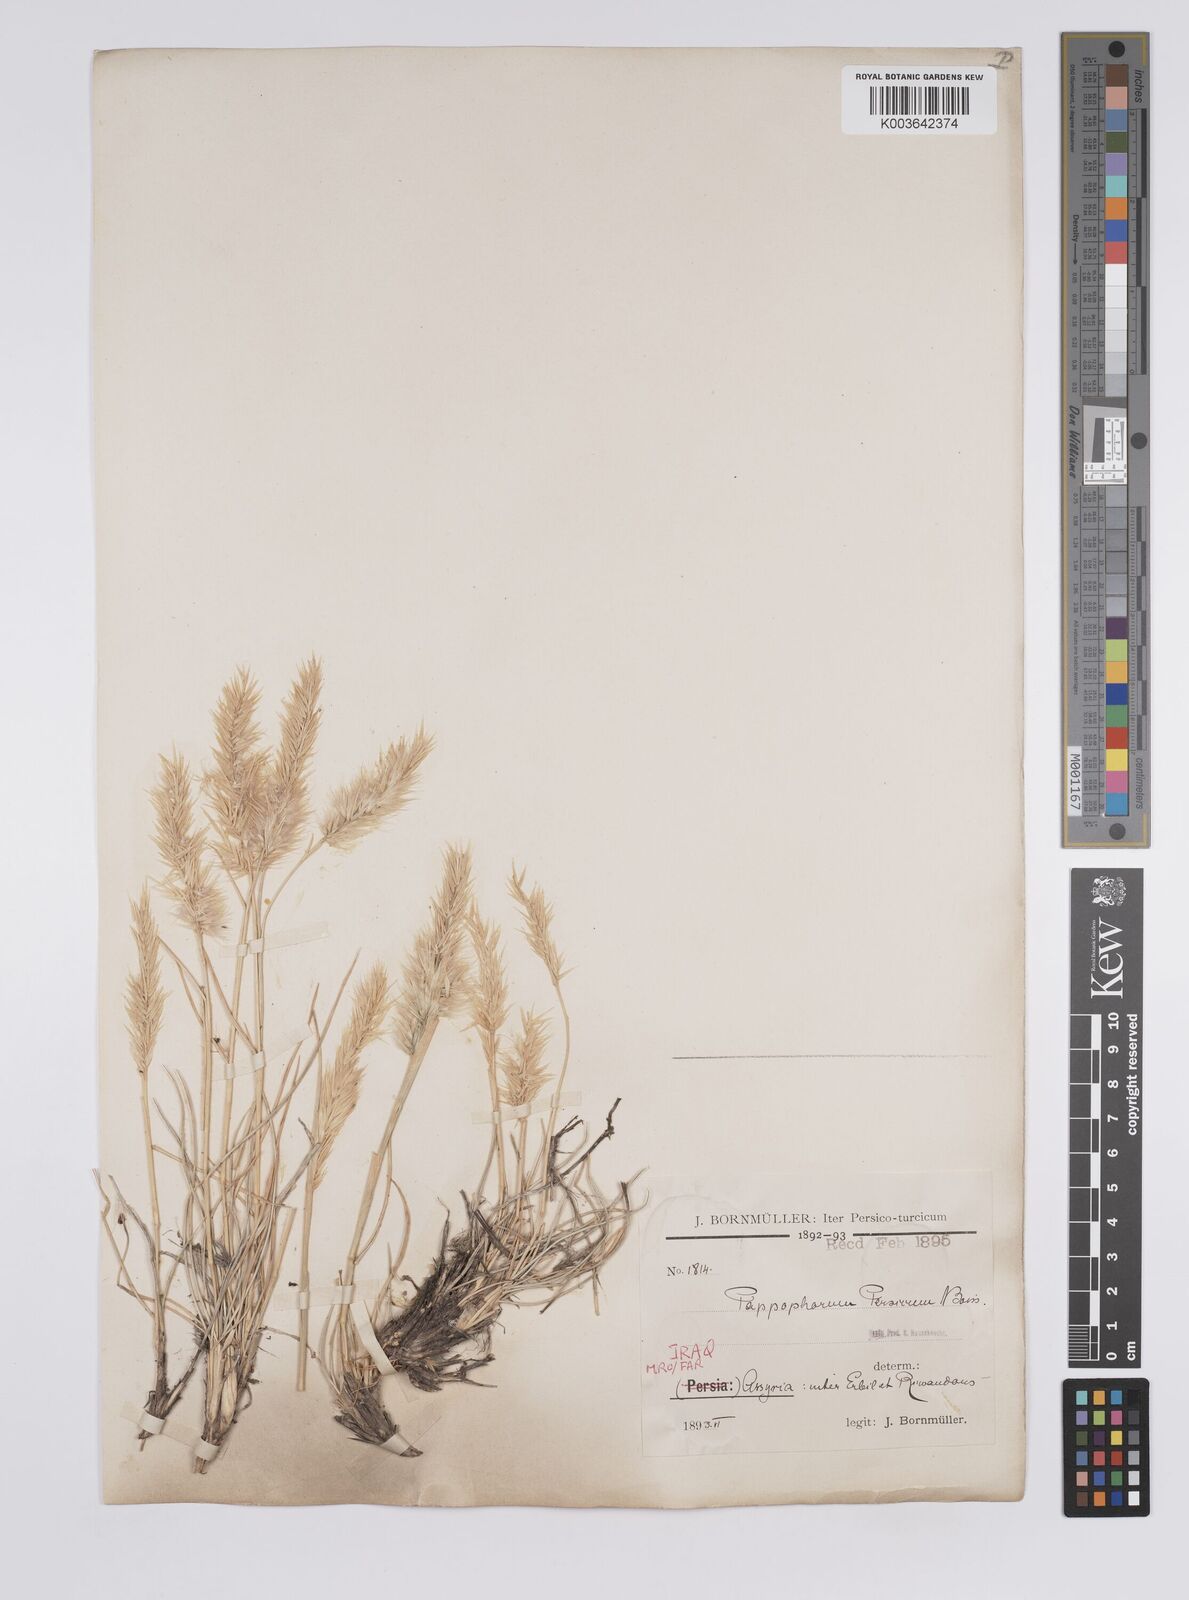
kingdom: Plantae
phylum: Tracheophyta
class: Liliopsida
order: Poales
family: Poaceae
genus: Enneapogon
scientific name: Enneapogon persicus
